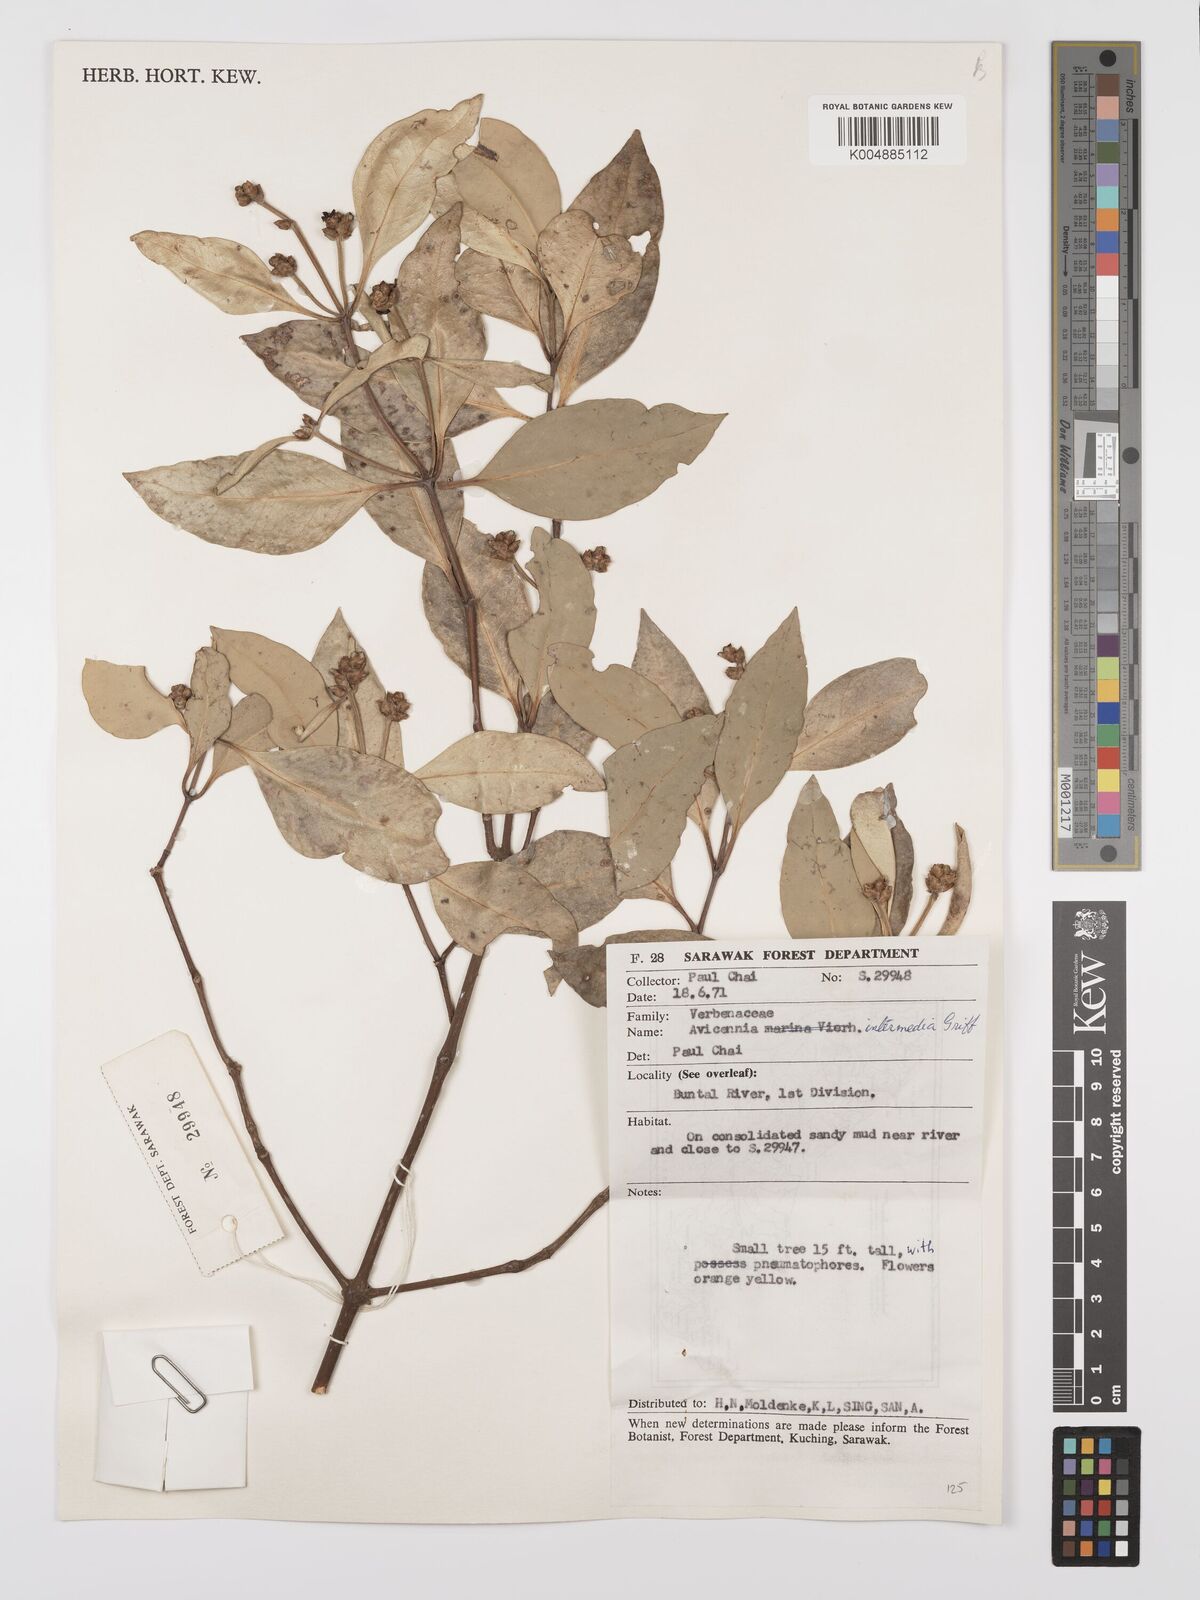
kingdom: Plantae
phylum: Tracheophyta
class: Magnoliopsida
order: Lamiales
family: Acanthaceae
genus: Avicennia
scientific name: Avicennia marina
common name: Gray mangrove
